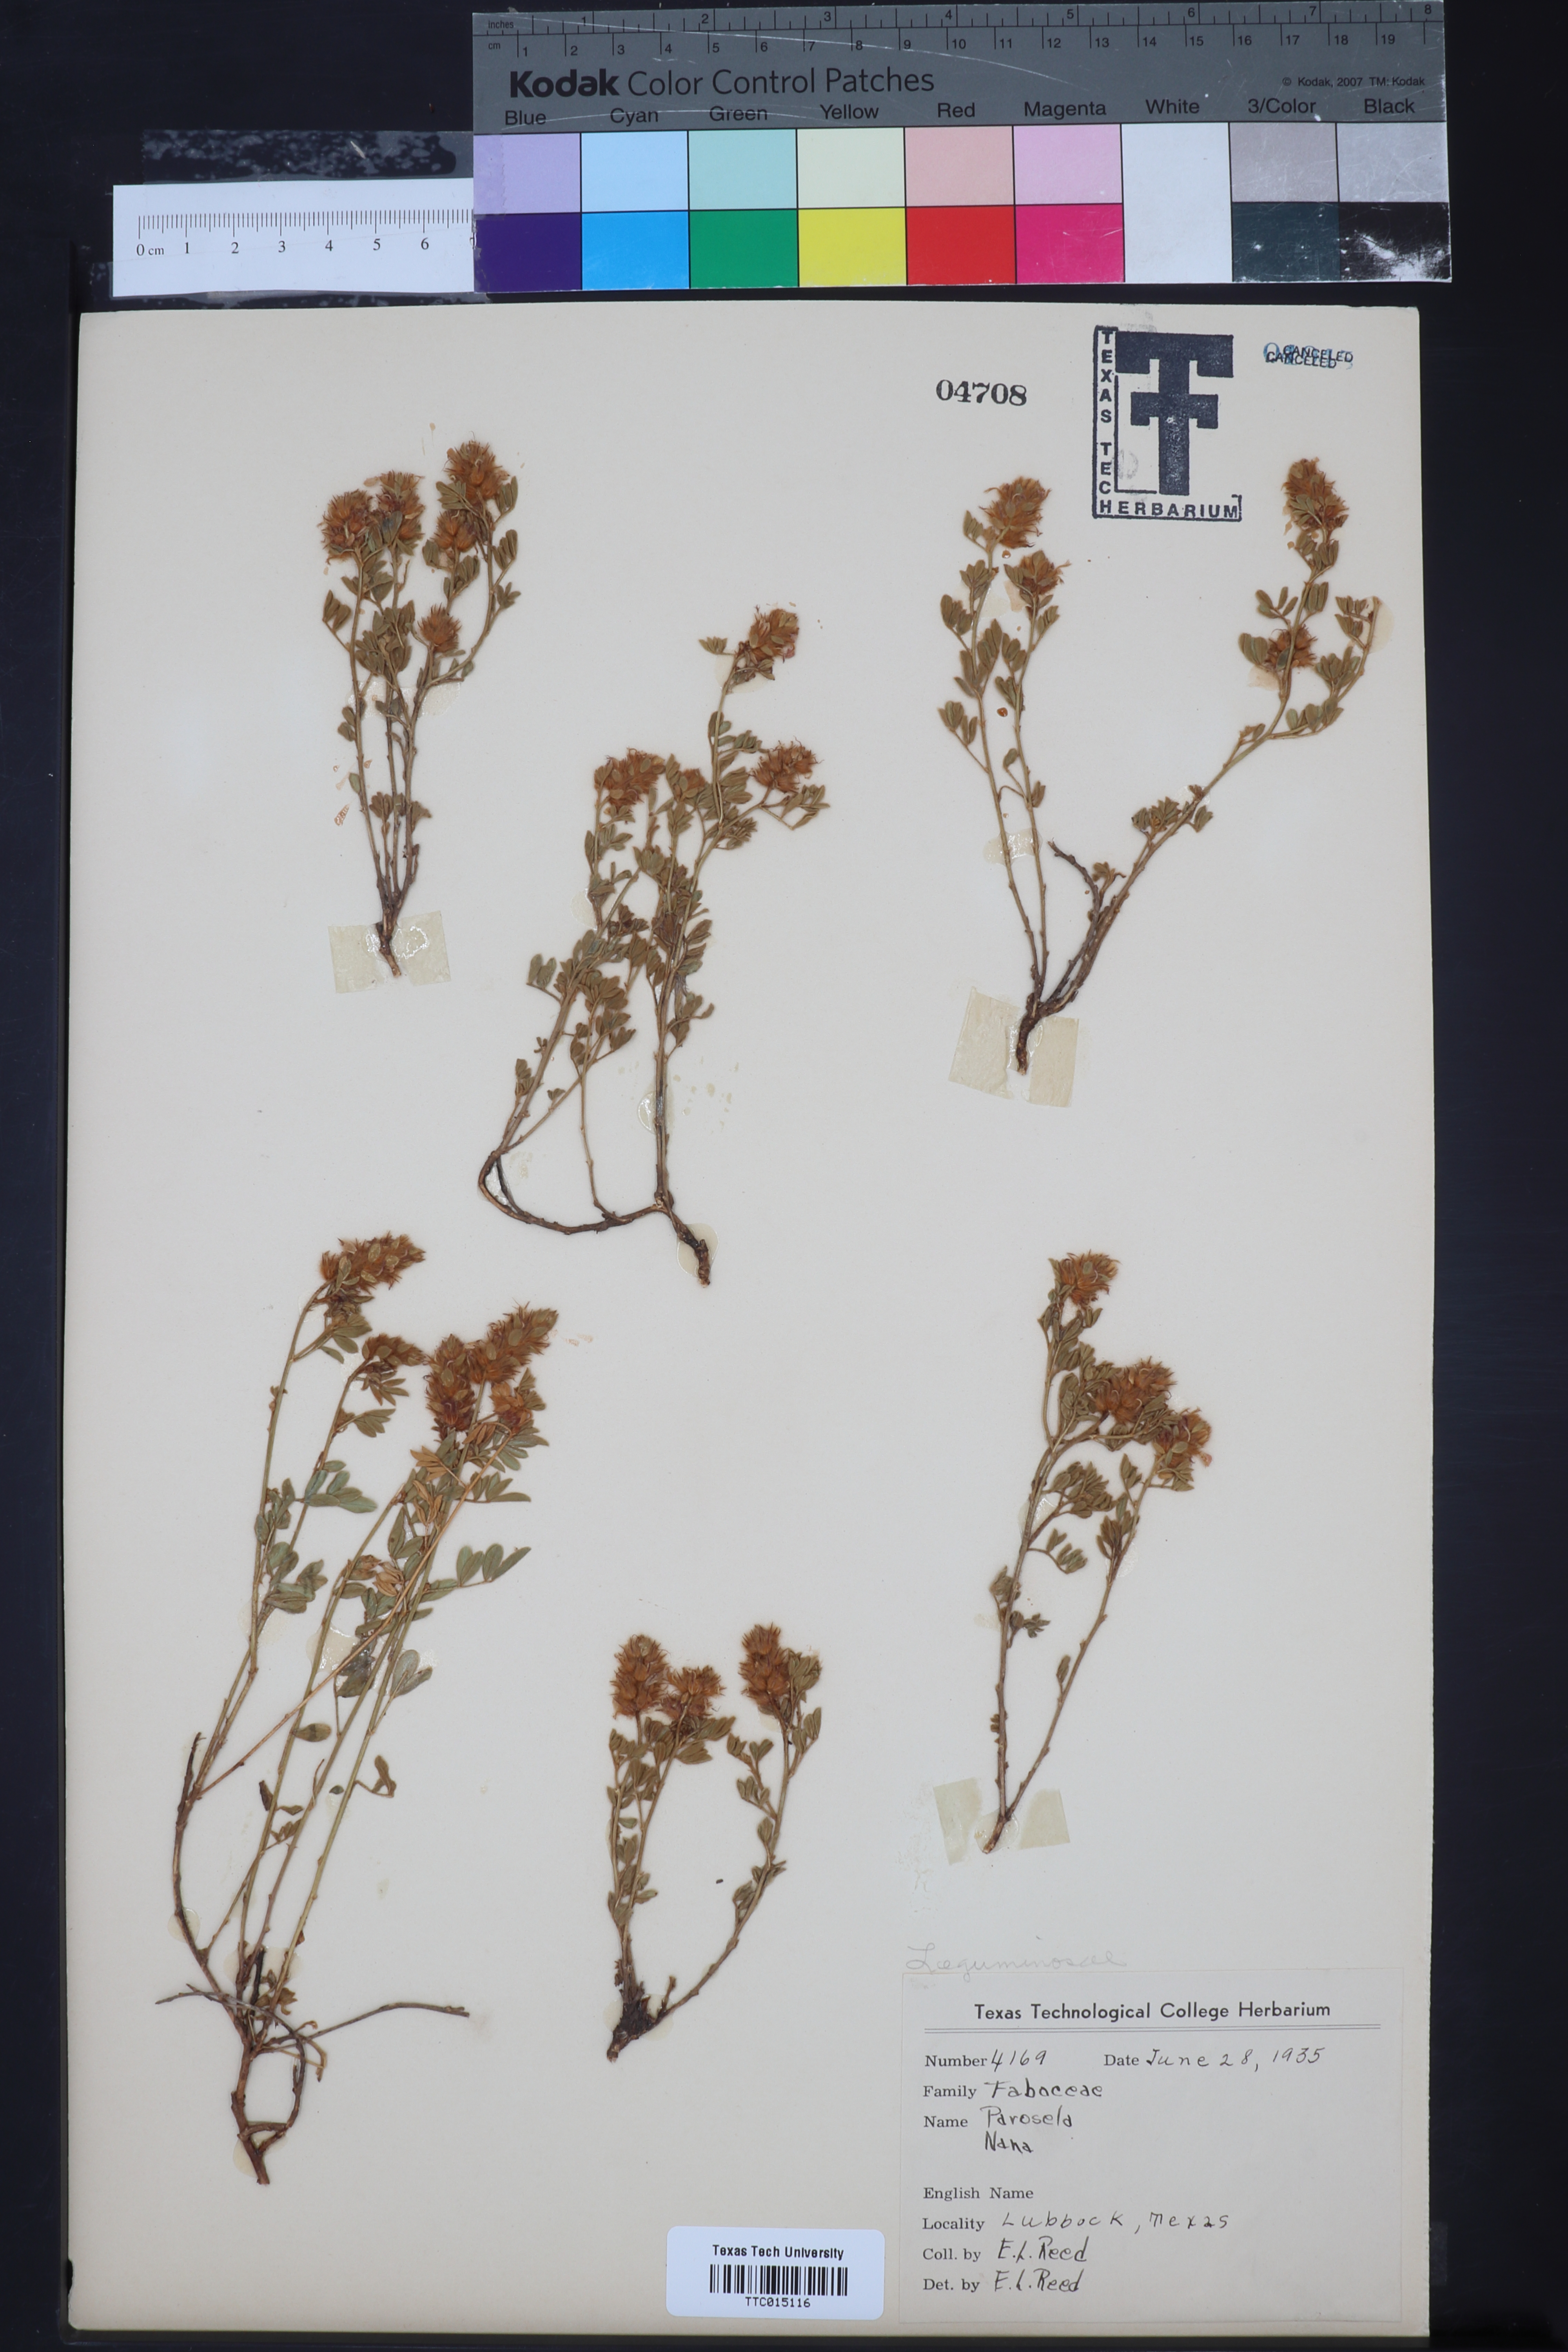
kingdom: Plantae
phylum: Tracheophyta
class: Magnoliopsida
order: Fabales
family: Fabaceae
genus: Dalea
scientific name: Dalea nana
